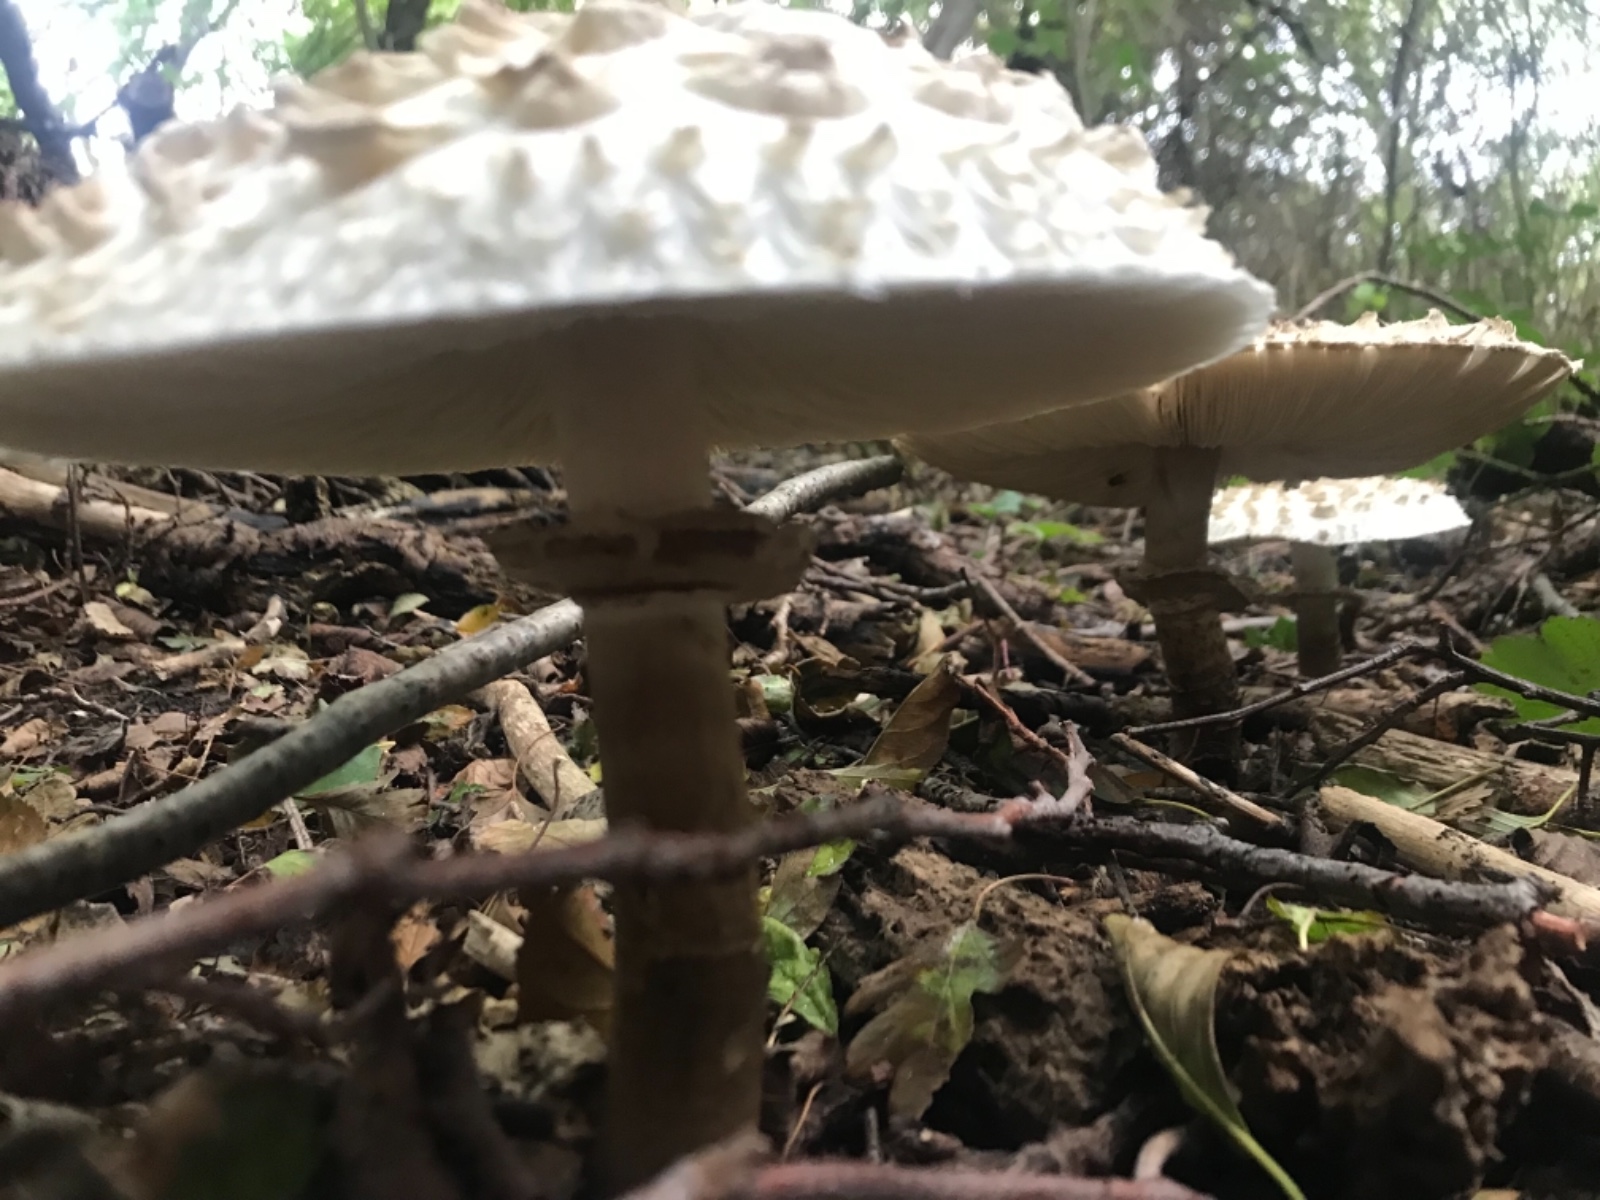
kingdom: Fungi
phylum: Basidiomycota
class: Agaricomycetes
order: Agaricales
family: Agaricaceae
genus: Chlorophyllum
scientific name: Chlorophyllum rhacodes
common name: ægte rabarberhat
